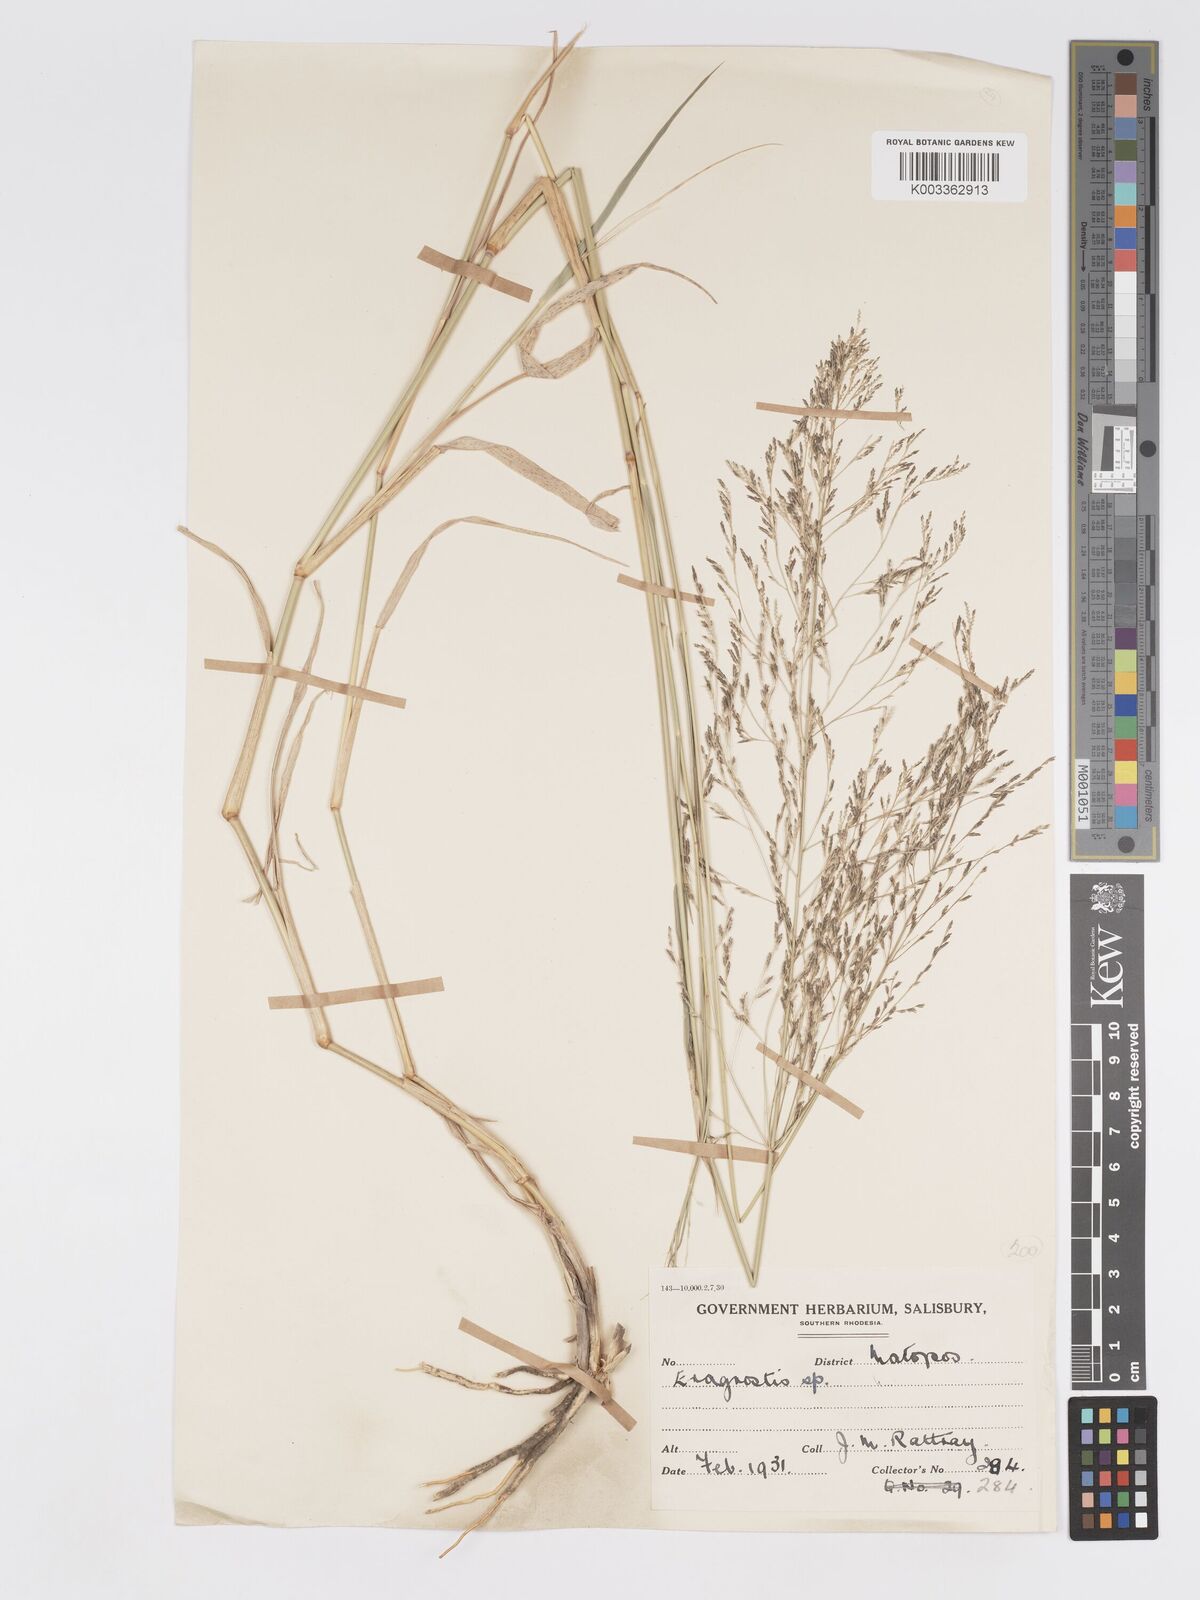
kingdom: Plantae
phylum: Tracheophyta
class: Liliopsida
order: Poales
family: Poaceae
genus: Eragrostis
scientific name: Eragrostis cylindriflora
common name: Cylinderflower lovegrass
